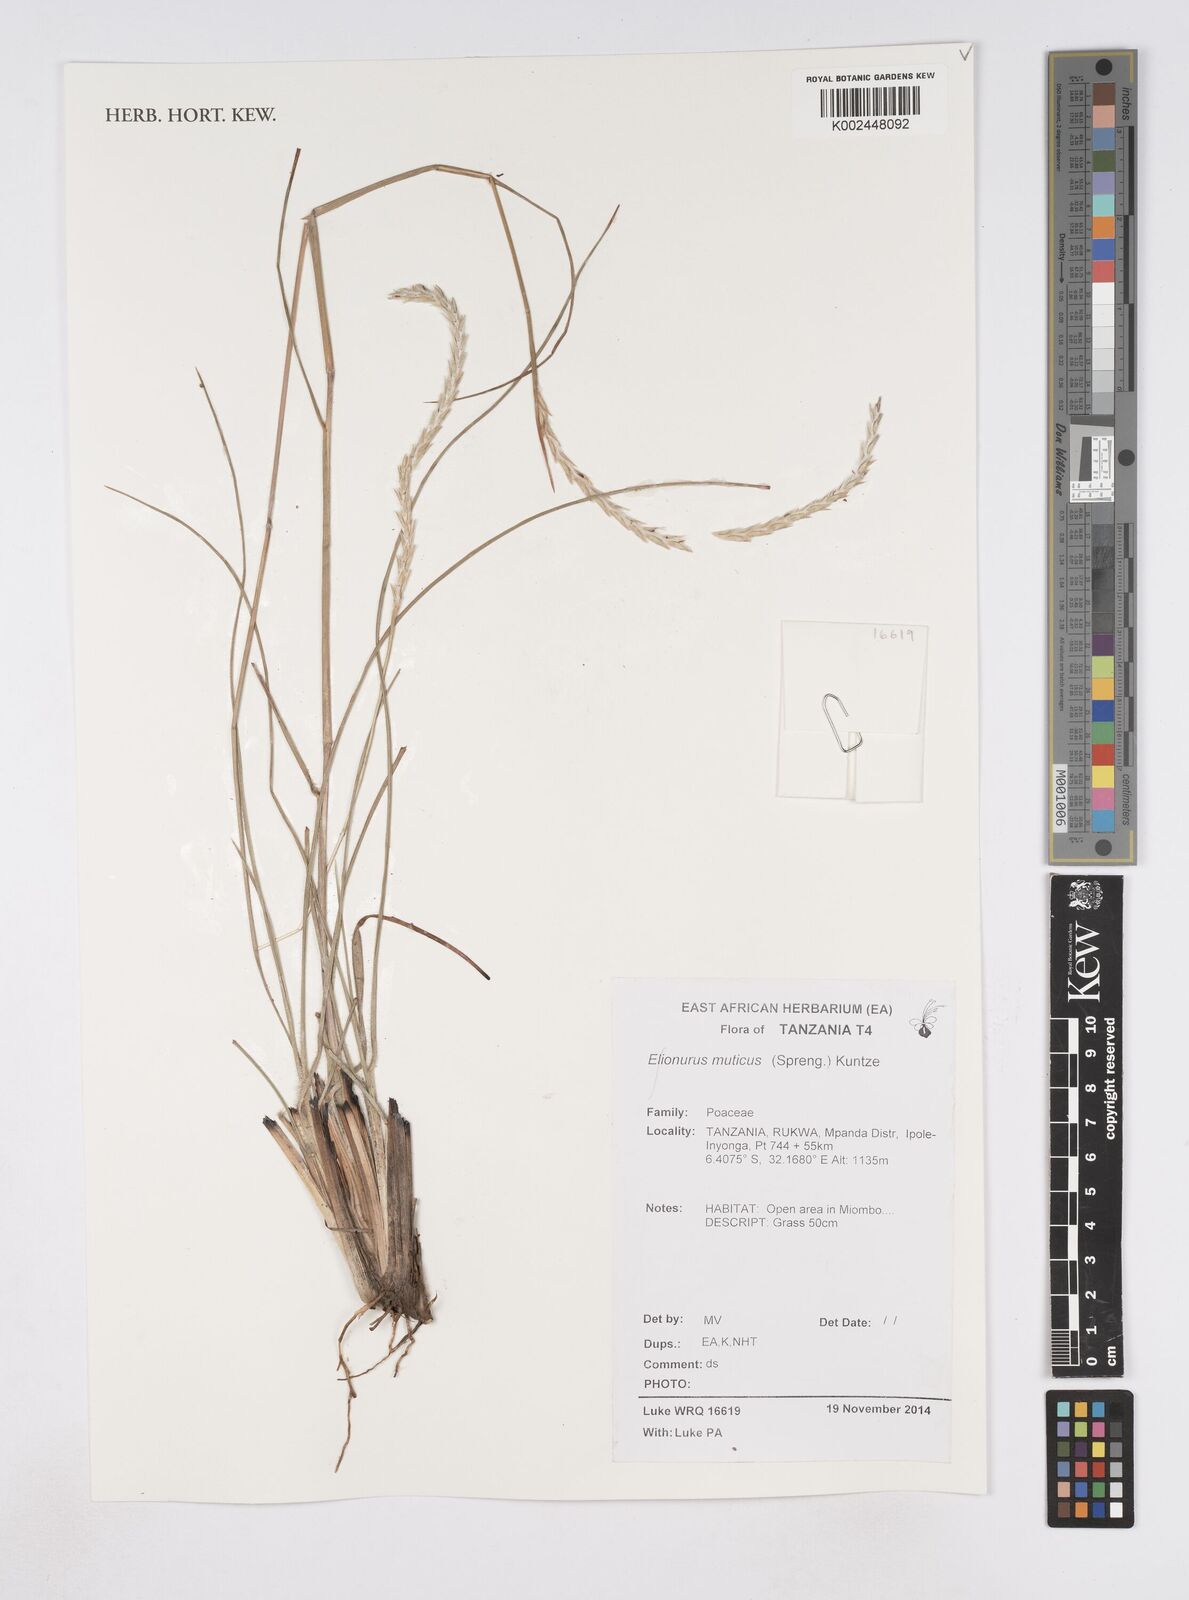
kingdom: Plantae
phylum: Tracheophyta
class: Liliopsida
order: Poales
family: Poaceae
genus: Elionurus
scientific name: Elionurus muticus
